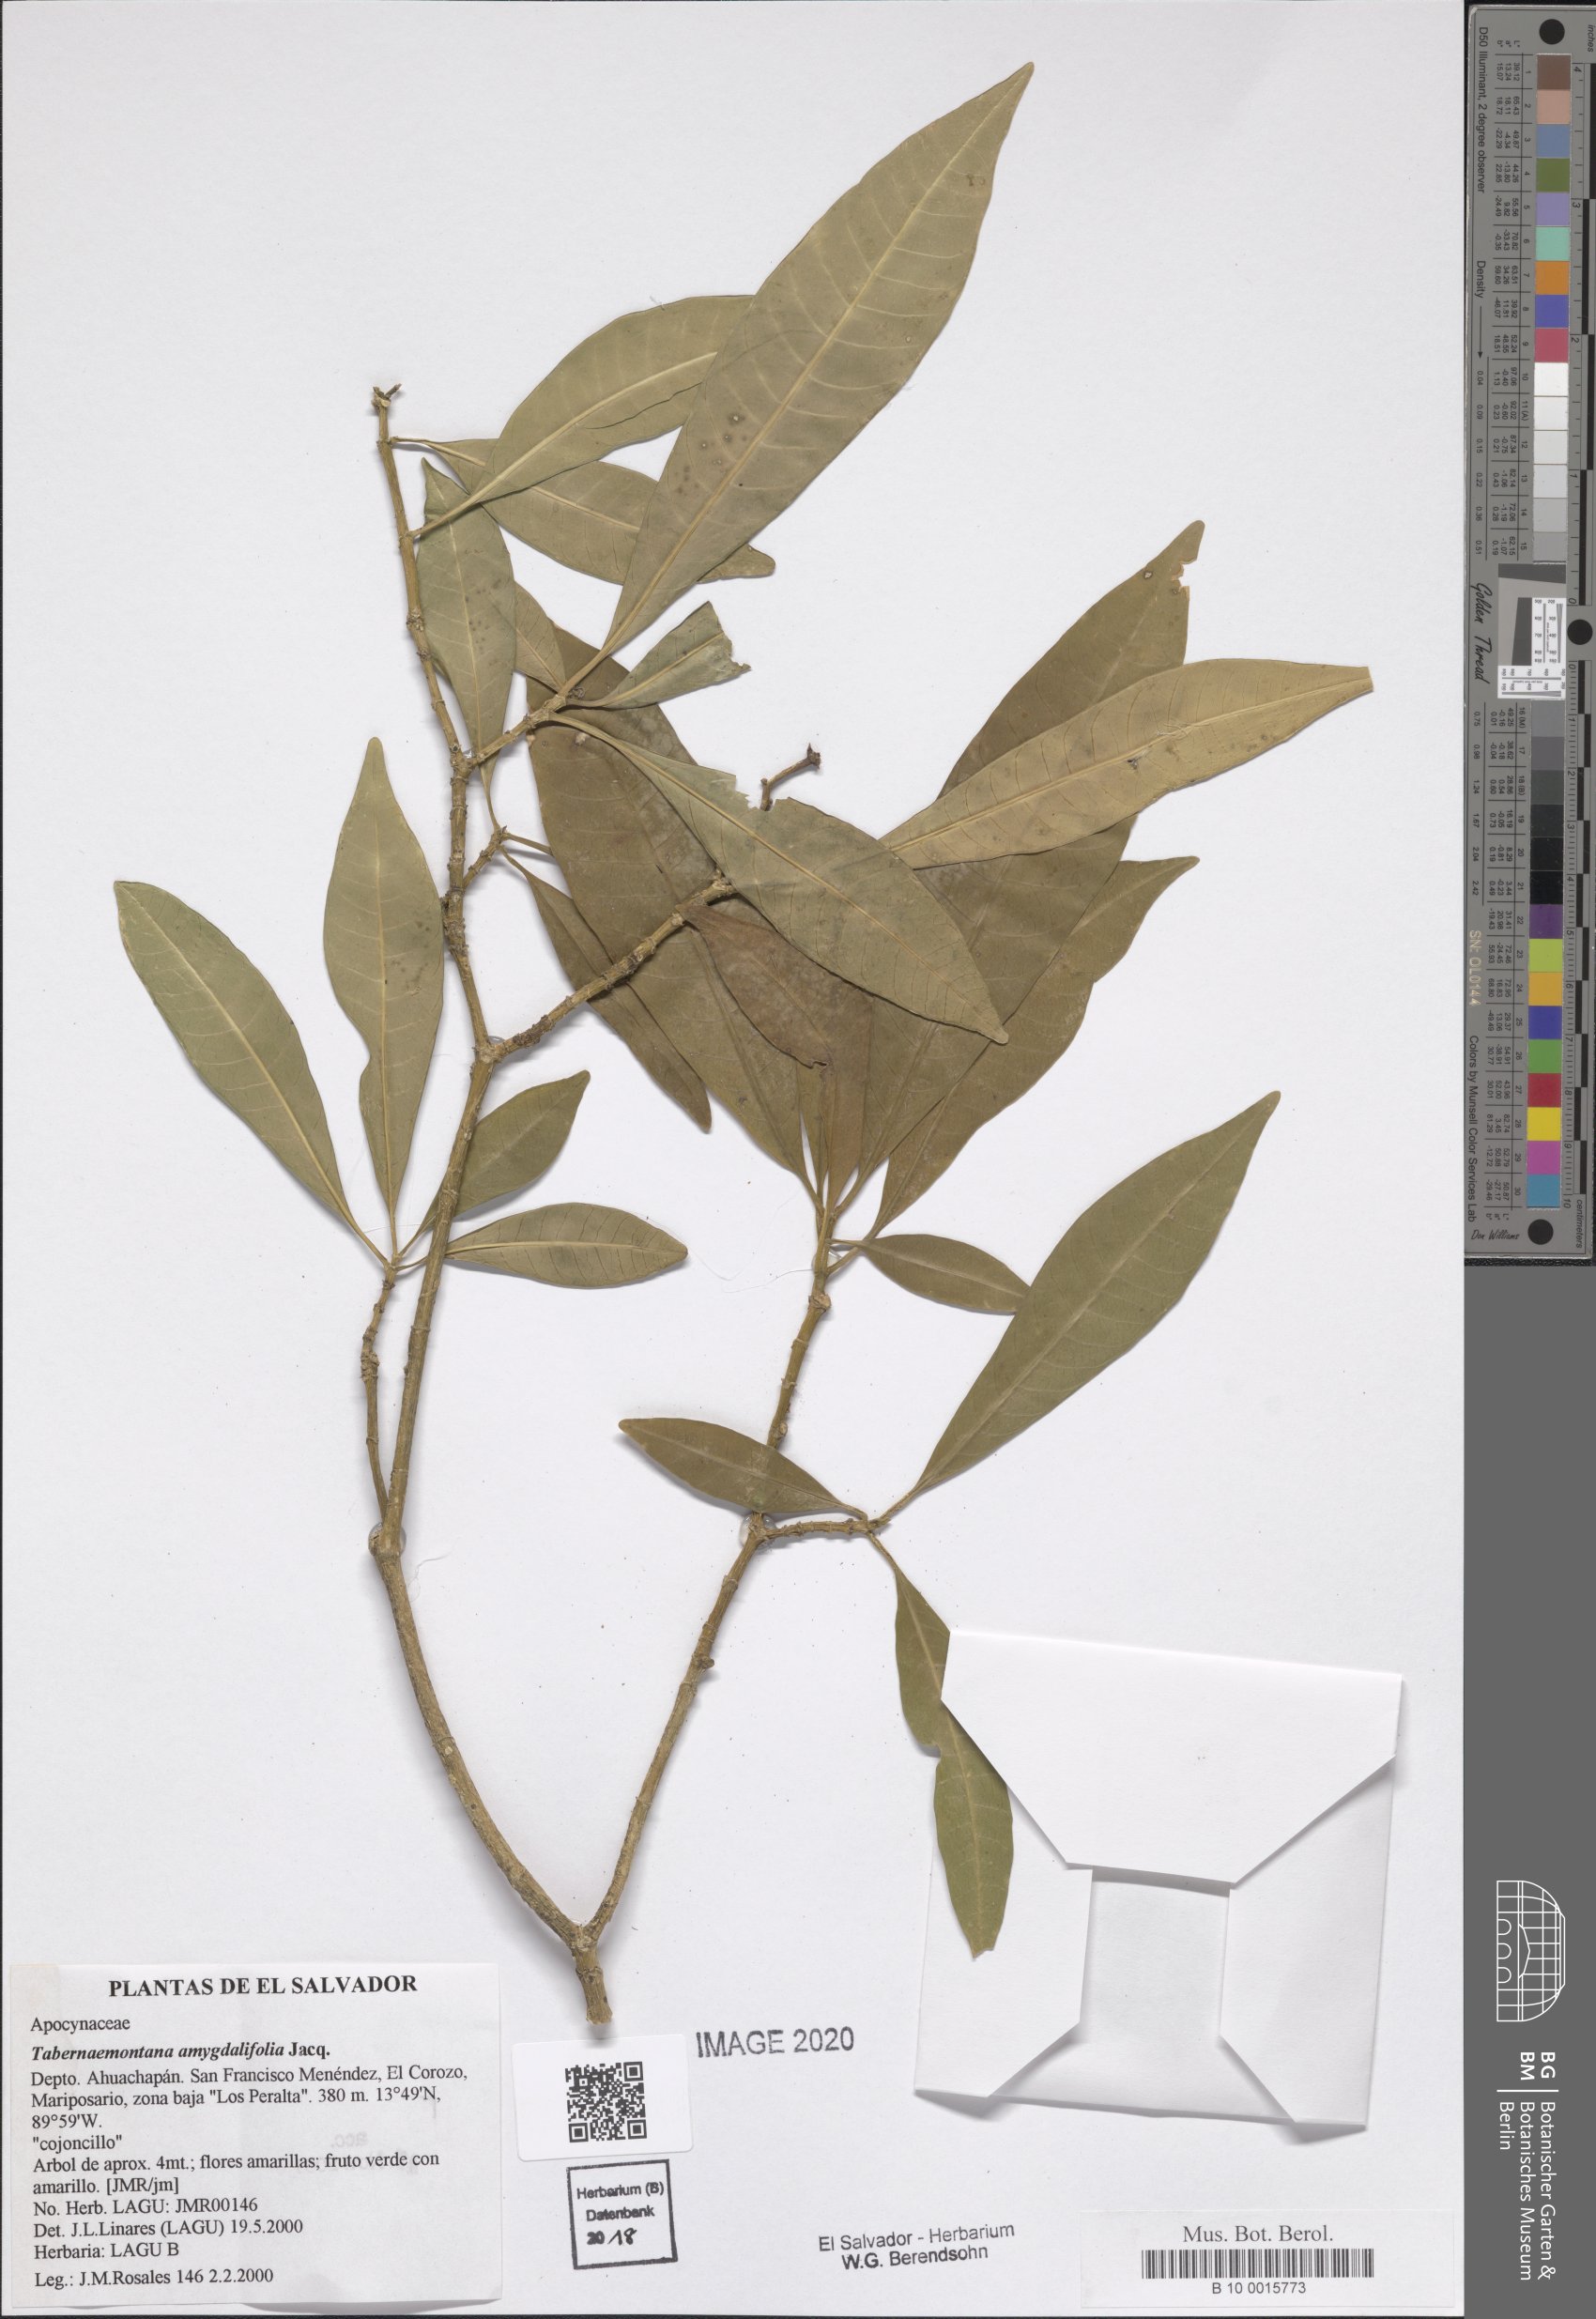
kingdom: Plantae
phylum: Tracheophyta
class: Magnoliopsida
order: Gentianales
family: Apocynaceae
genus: Tabernaemontana
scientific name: Tabernaemontana amygdalifolia
